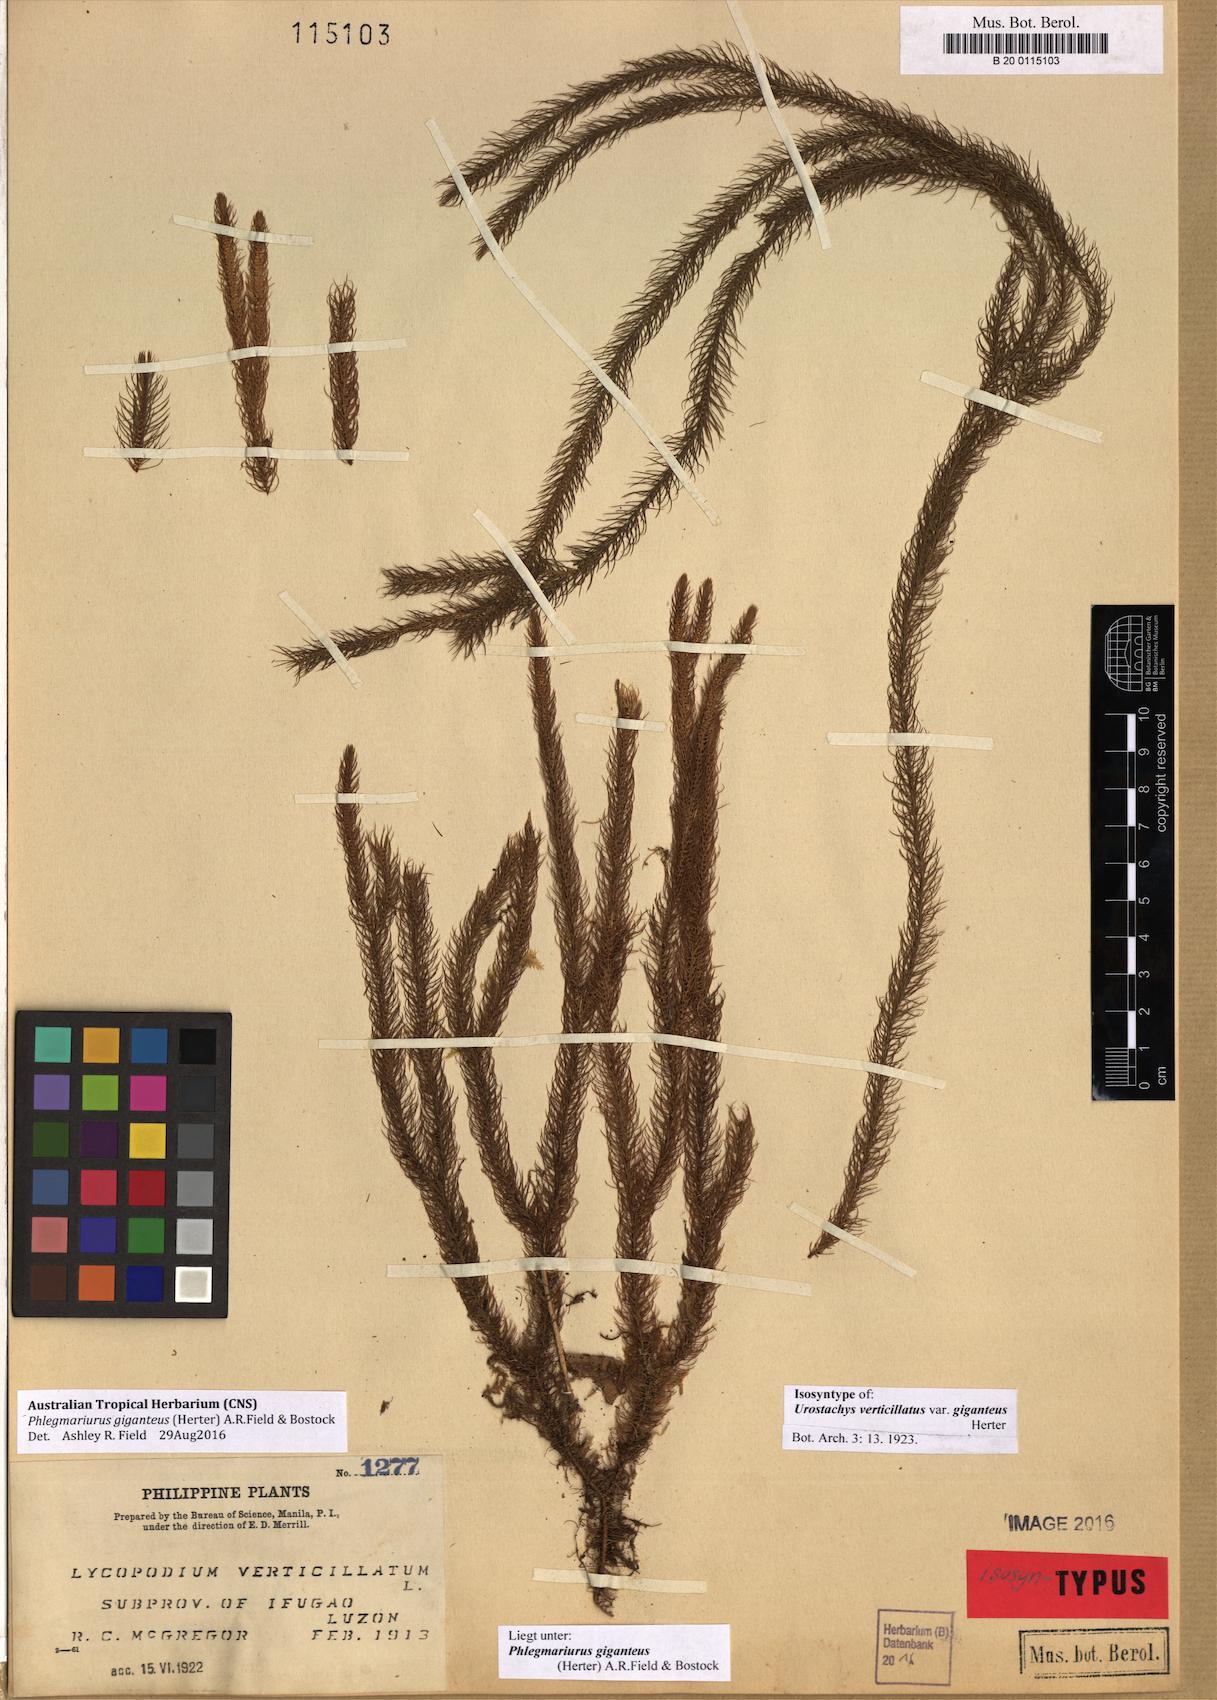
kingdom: Plantae
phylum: Tracheophyta
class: Lycopodiopsida
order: Lycopodiales
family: Lycopodiaceae
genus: Phlegmariurus
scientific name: Phlegmariurus giganteus
